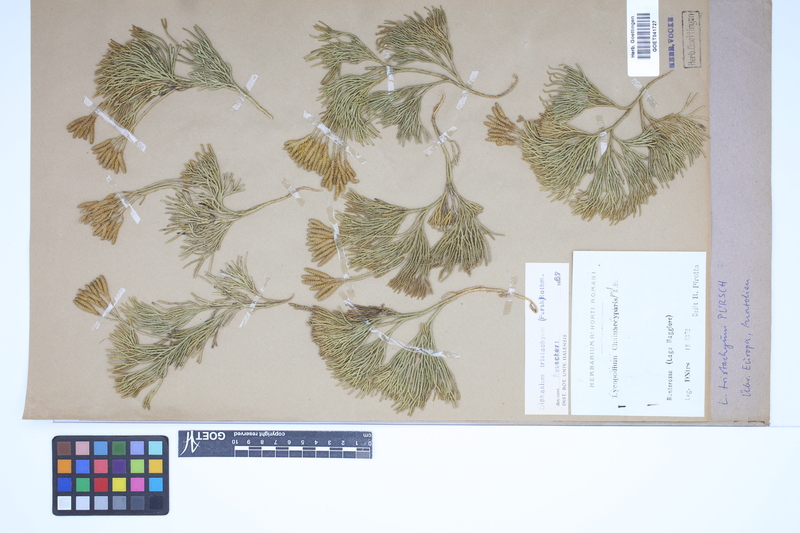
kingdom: Plantae
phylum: Tracheophyta
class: Lycopodiopsida
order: Lycopodiales
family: Lycopodiaceae
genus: Diphasiastrum
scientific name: Diphasiastrum tristachyum
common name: Blue ground-cedar
